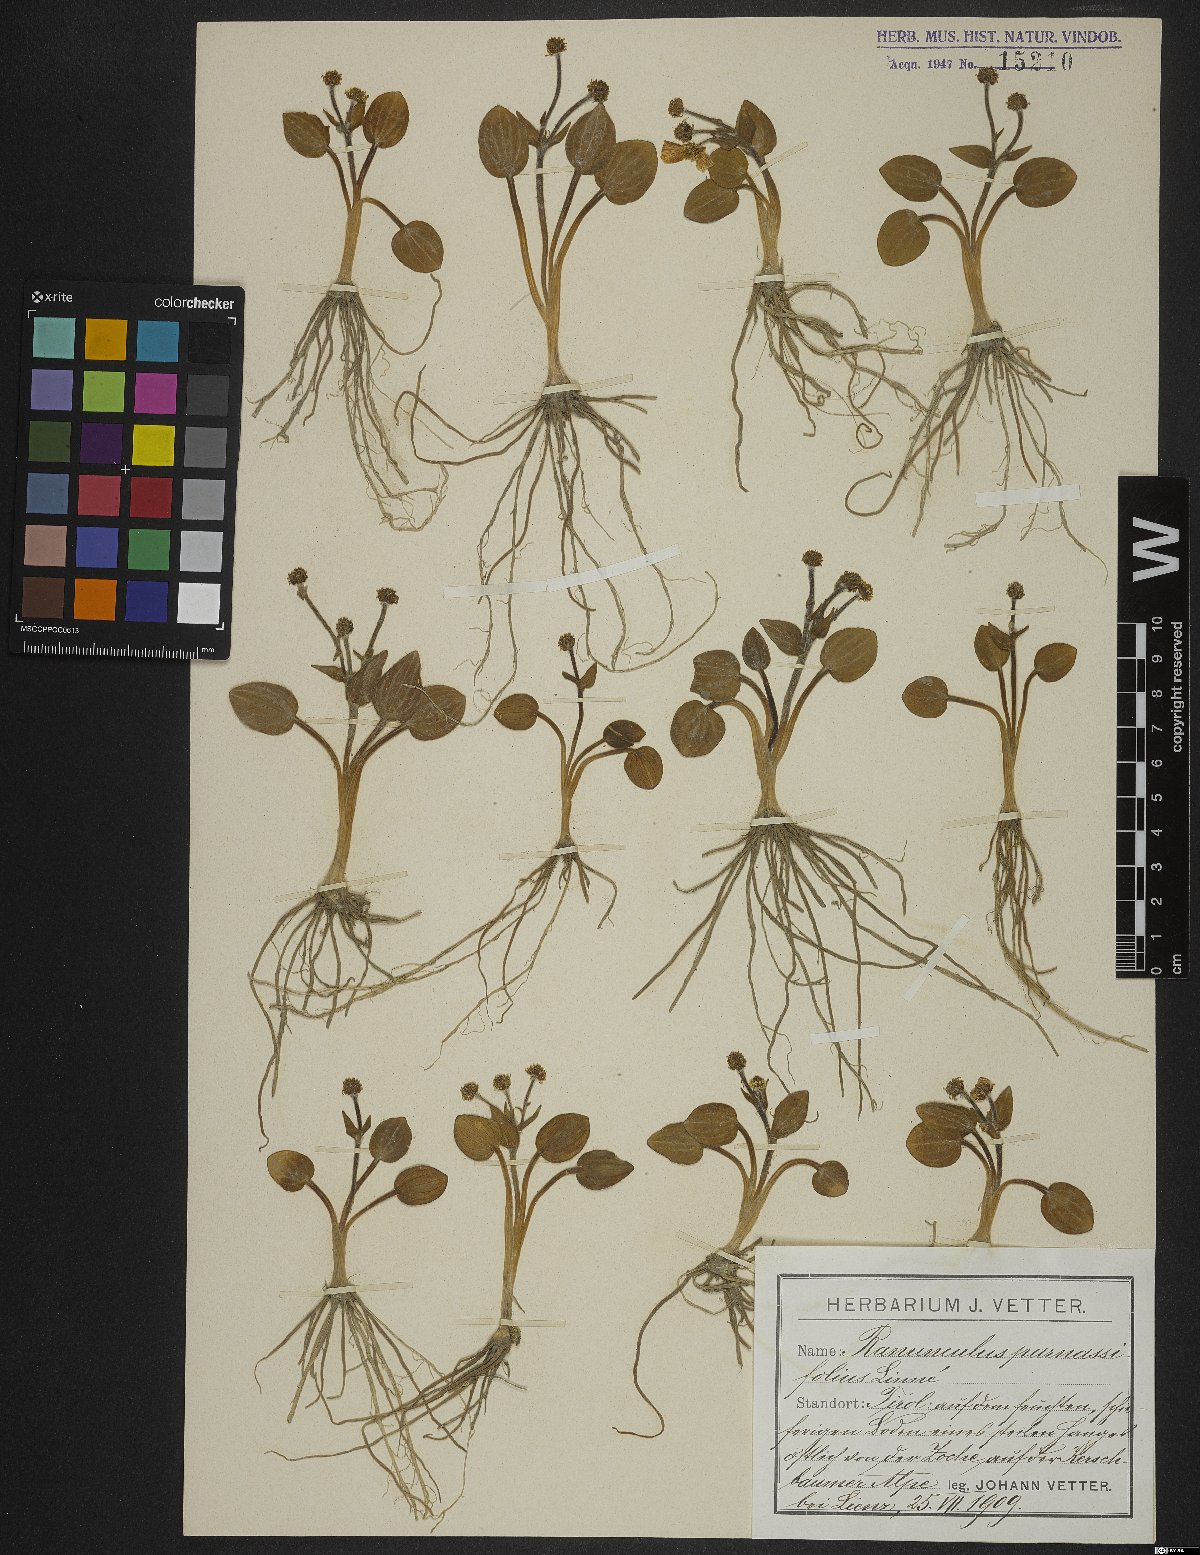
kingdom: Plantae
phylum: Tracheophyta
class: Magnoliopsida
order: Ranunculales
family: Ranunculaceae
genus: Ranunculus
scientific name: Ranunculus parnassiifolius
